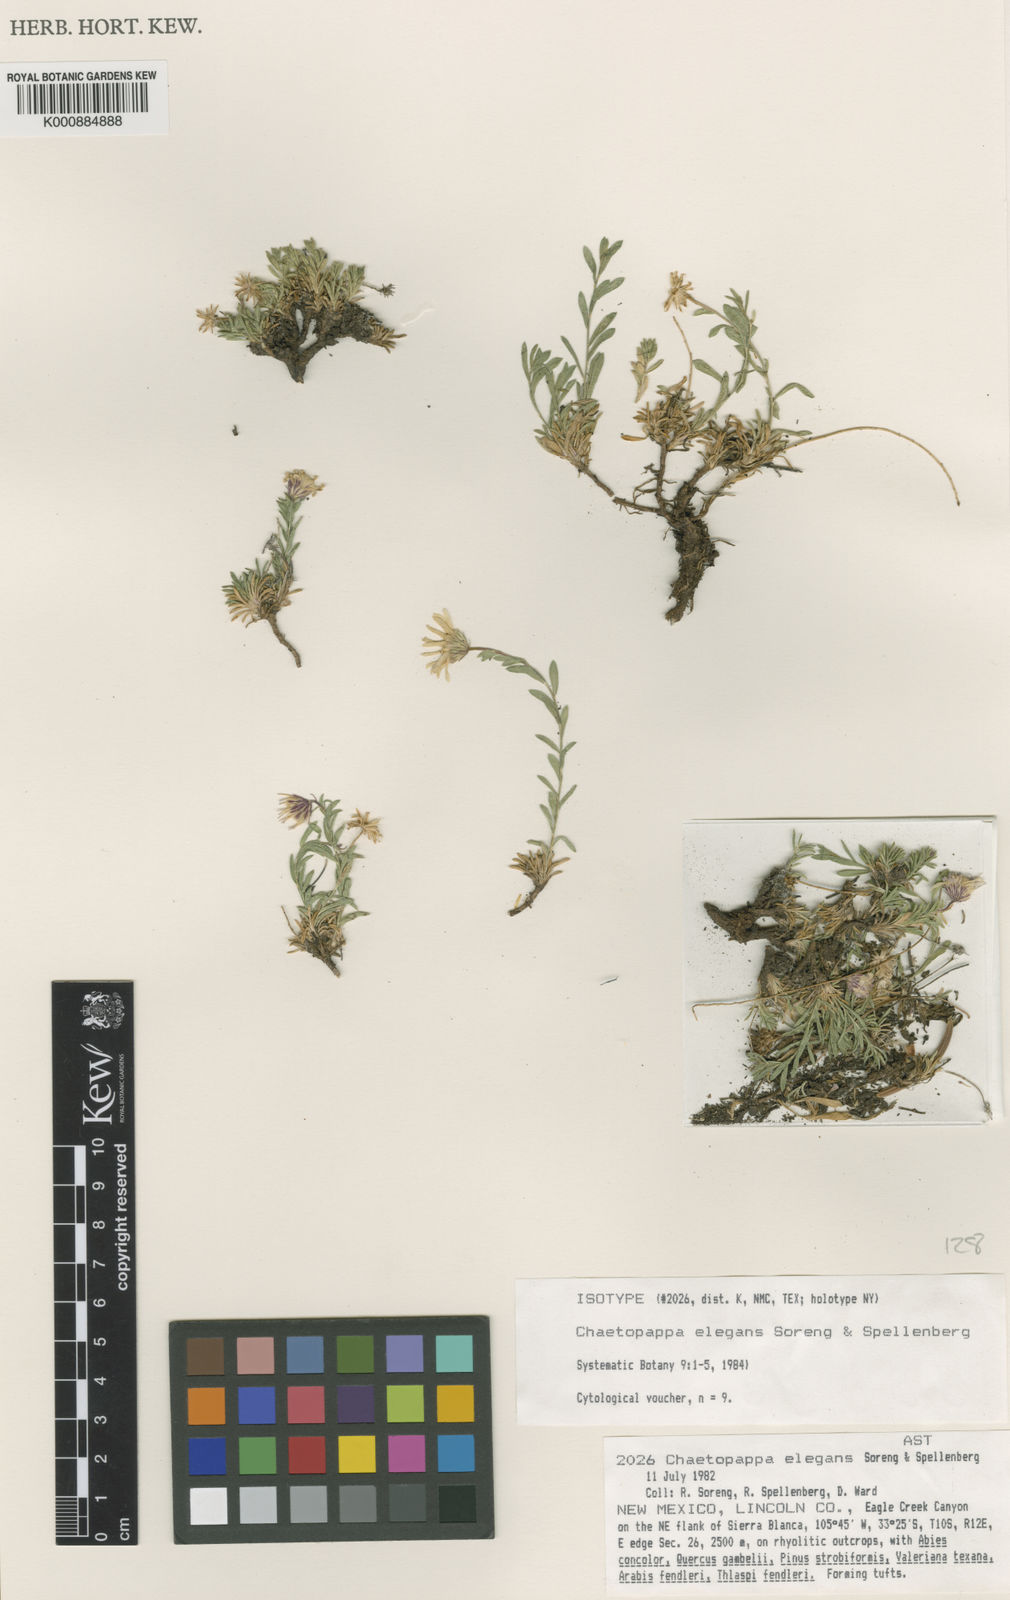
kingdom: Plantae
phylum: Tracheophyta
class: Magnoliopsida
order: Asterales
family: Asteraceae
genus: Ionactis
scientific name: Ionactis elegans
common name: Sierra blanca ankle aster
